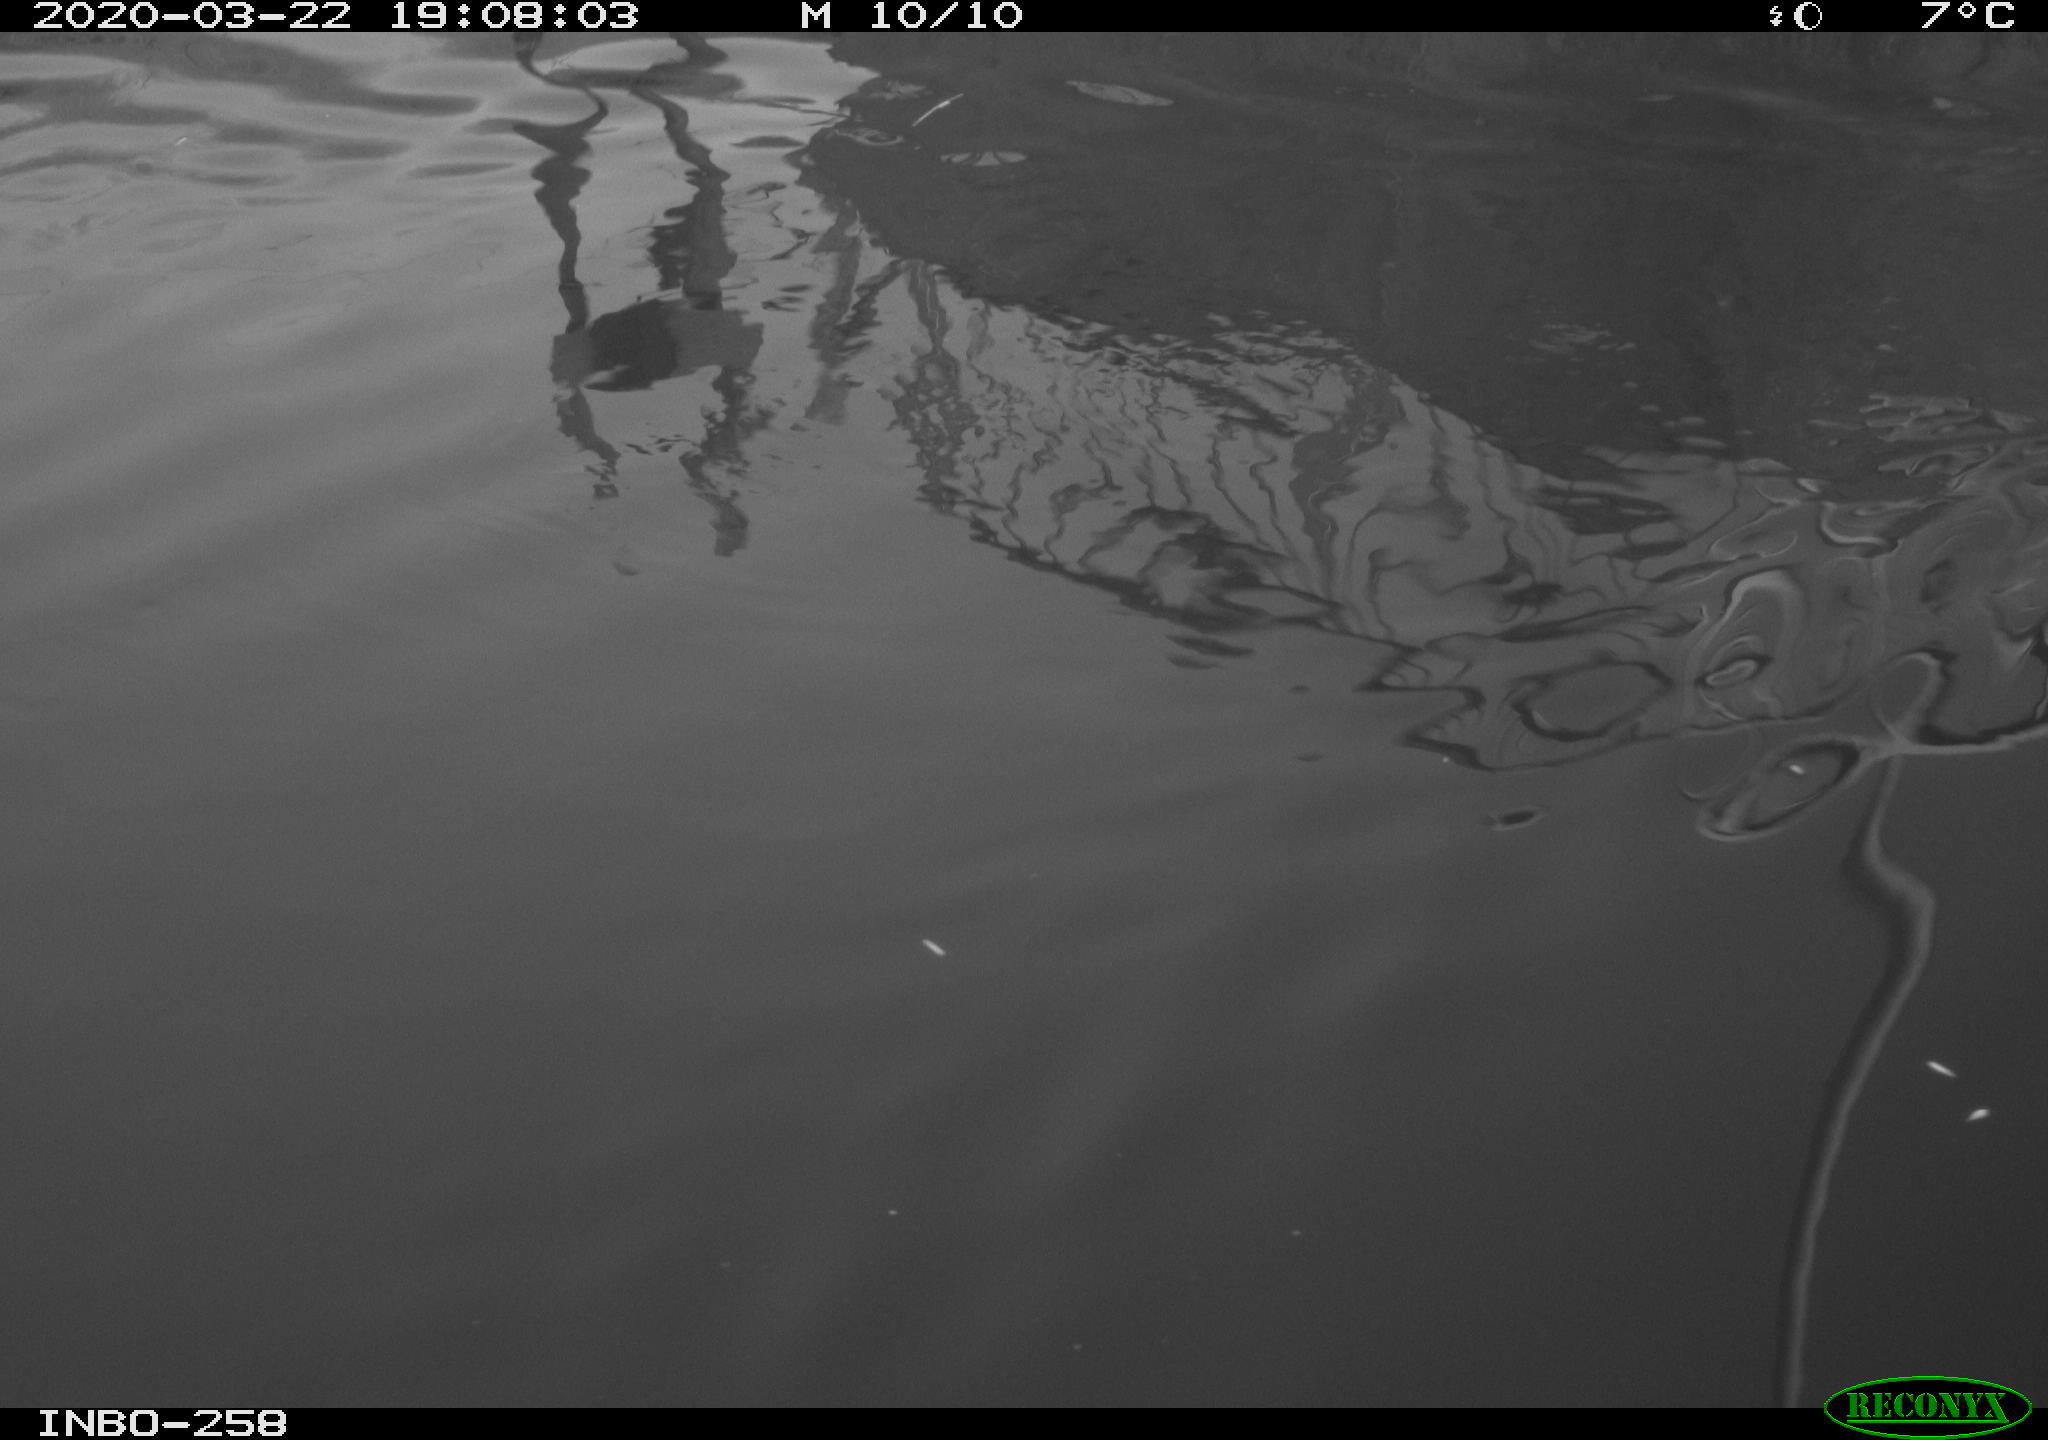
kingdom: Animalia
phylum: Chordata
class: Aves
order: Anseriformes
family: Anatidae
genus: Anas
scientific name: Anas platyrhynchos
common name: Mallard
